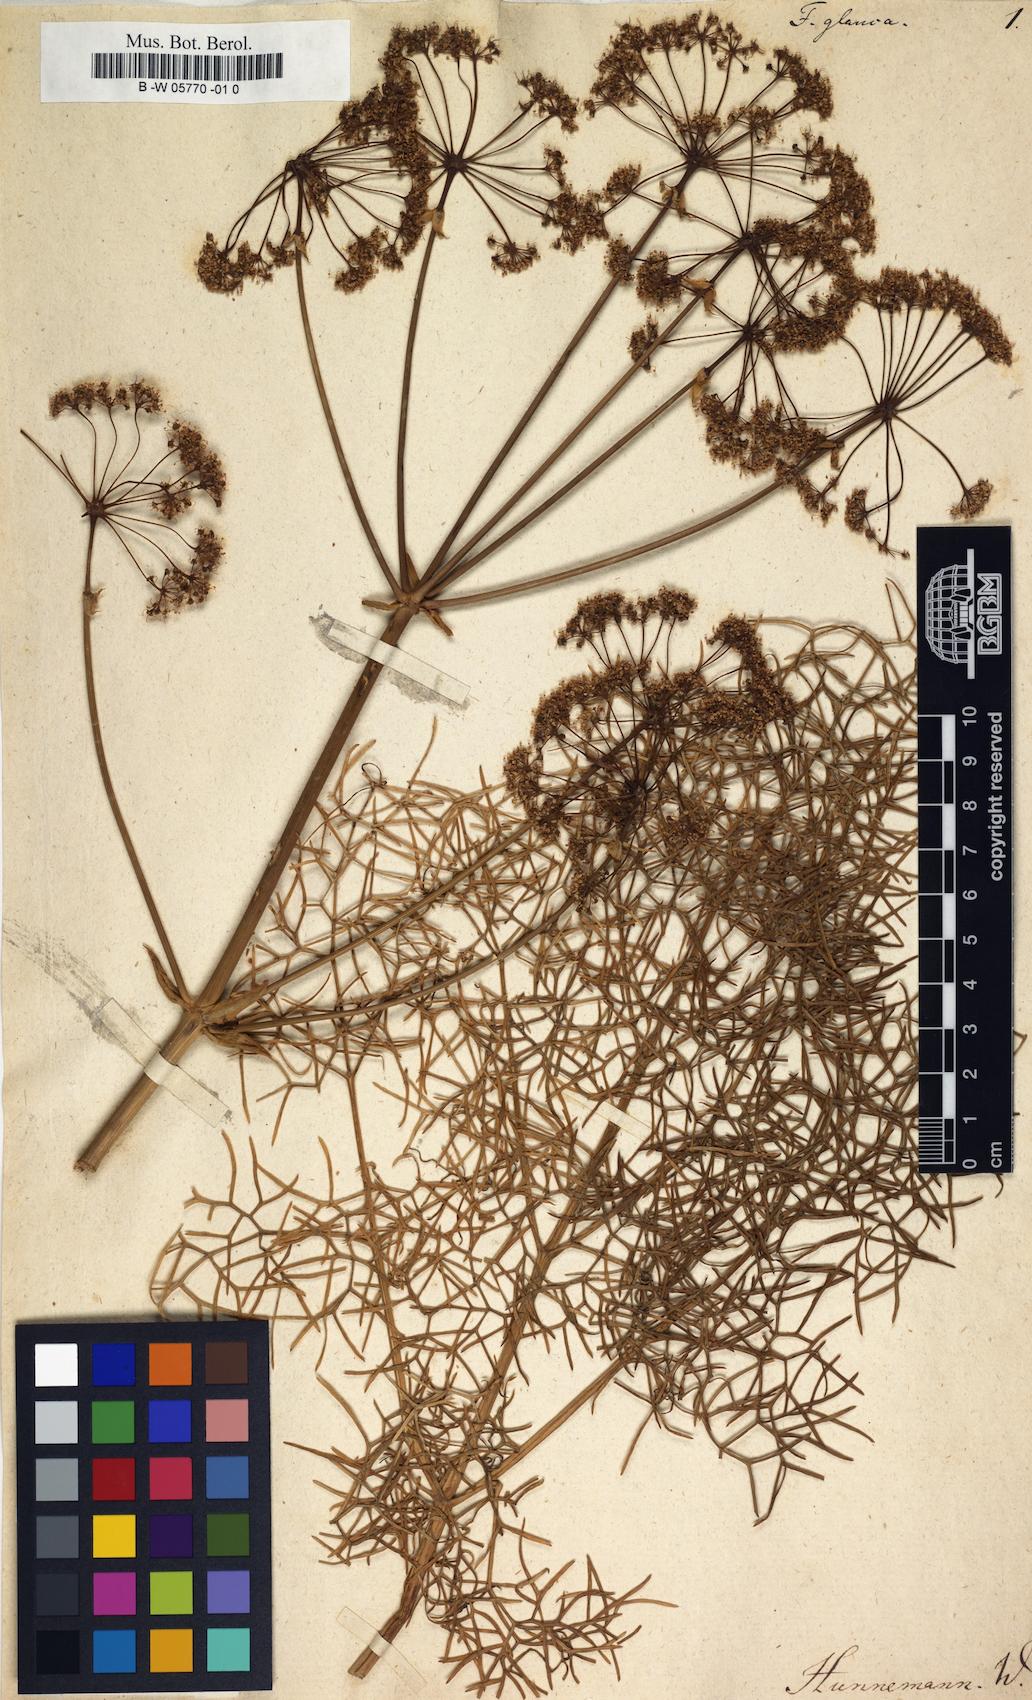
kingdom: Plantae
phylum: Tracheophyta
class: Magnoliopsida
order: Apiales
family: Apiaceae
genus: Ferula
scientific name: Ferula glauca
